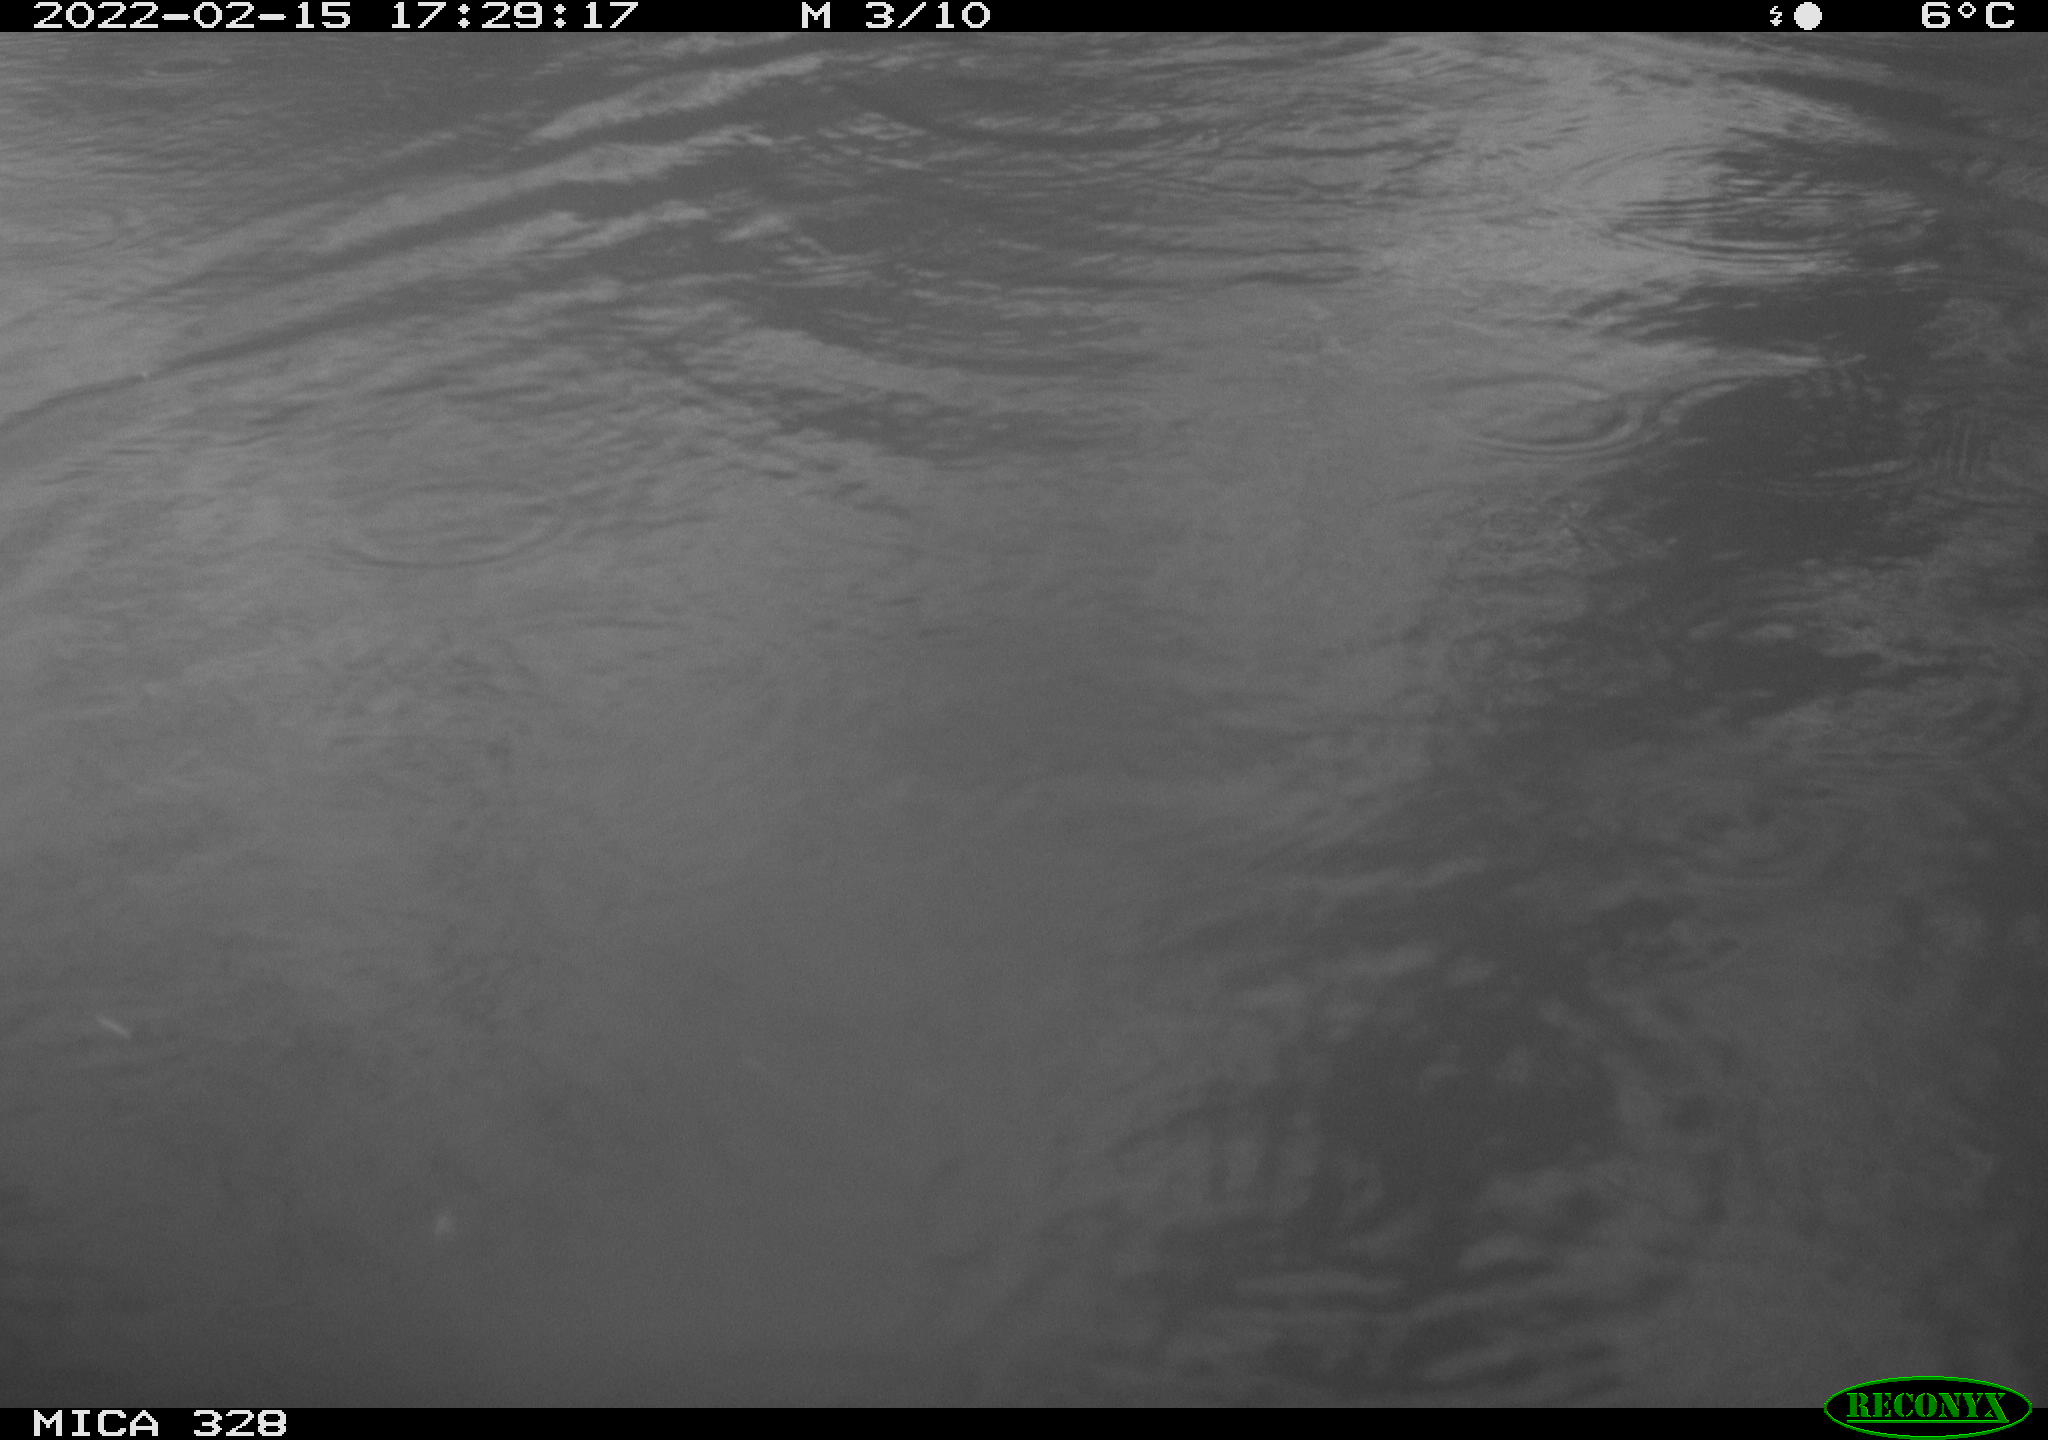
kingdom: Animalia
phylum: Chordata
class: Mammalia
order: Rodentia
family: Cricetidae
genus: Ondatra
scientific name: Ondatra zibethicus
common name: Muskrat
